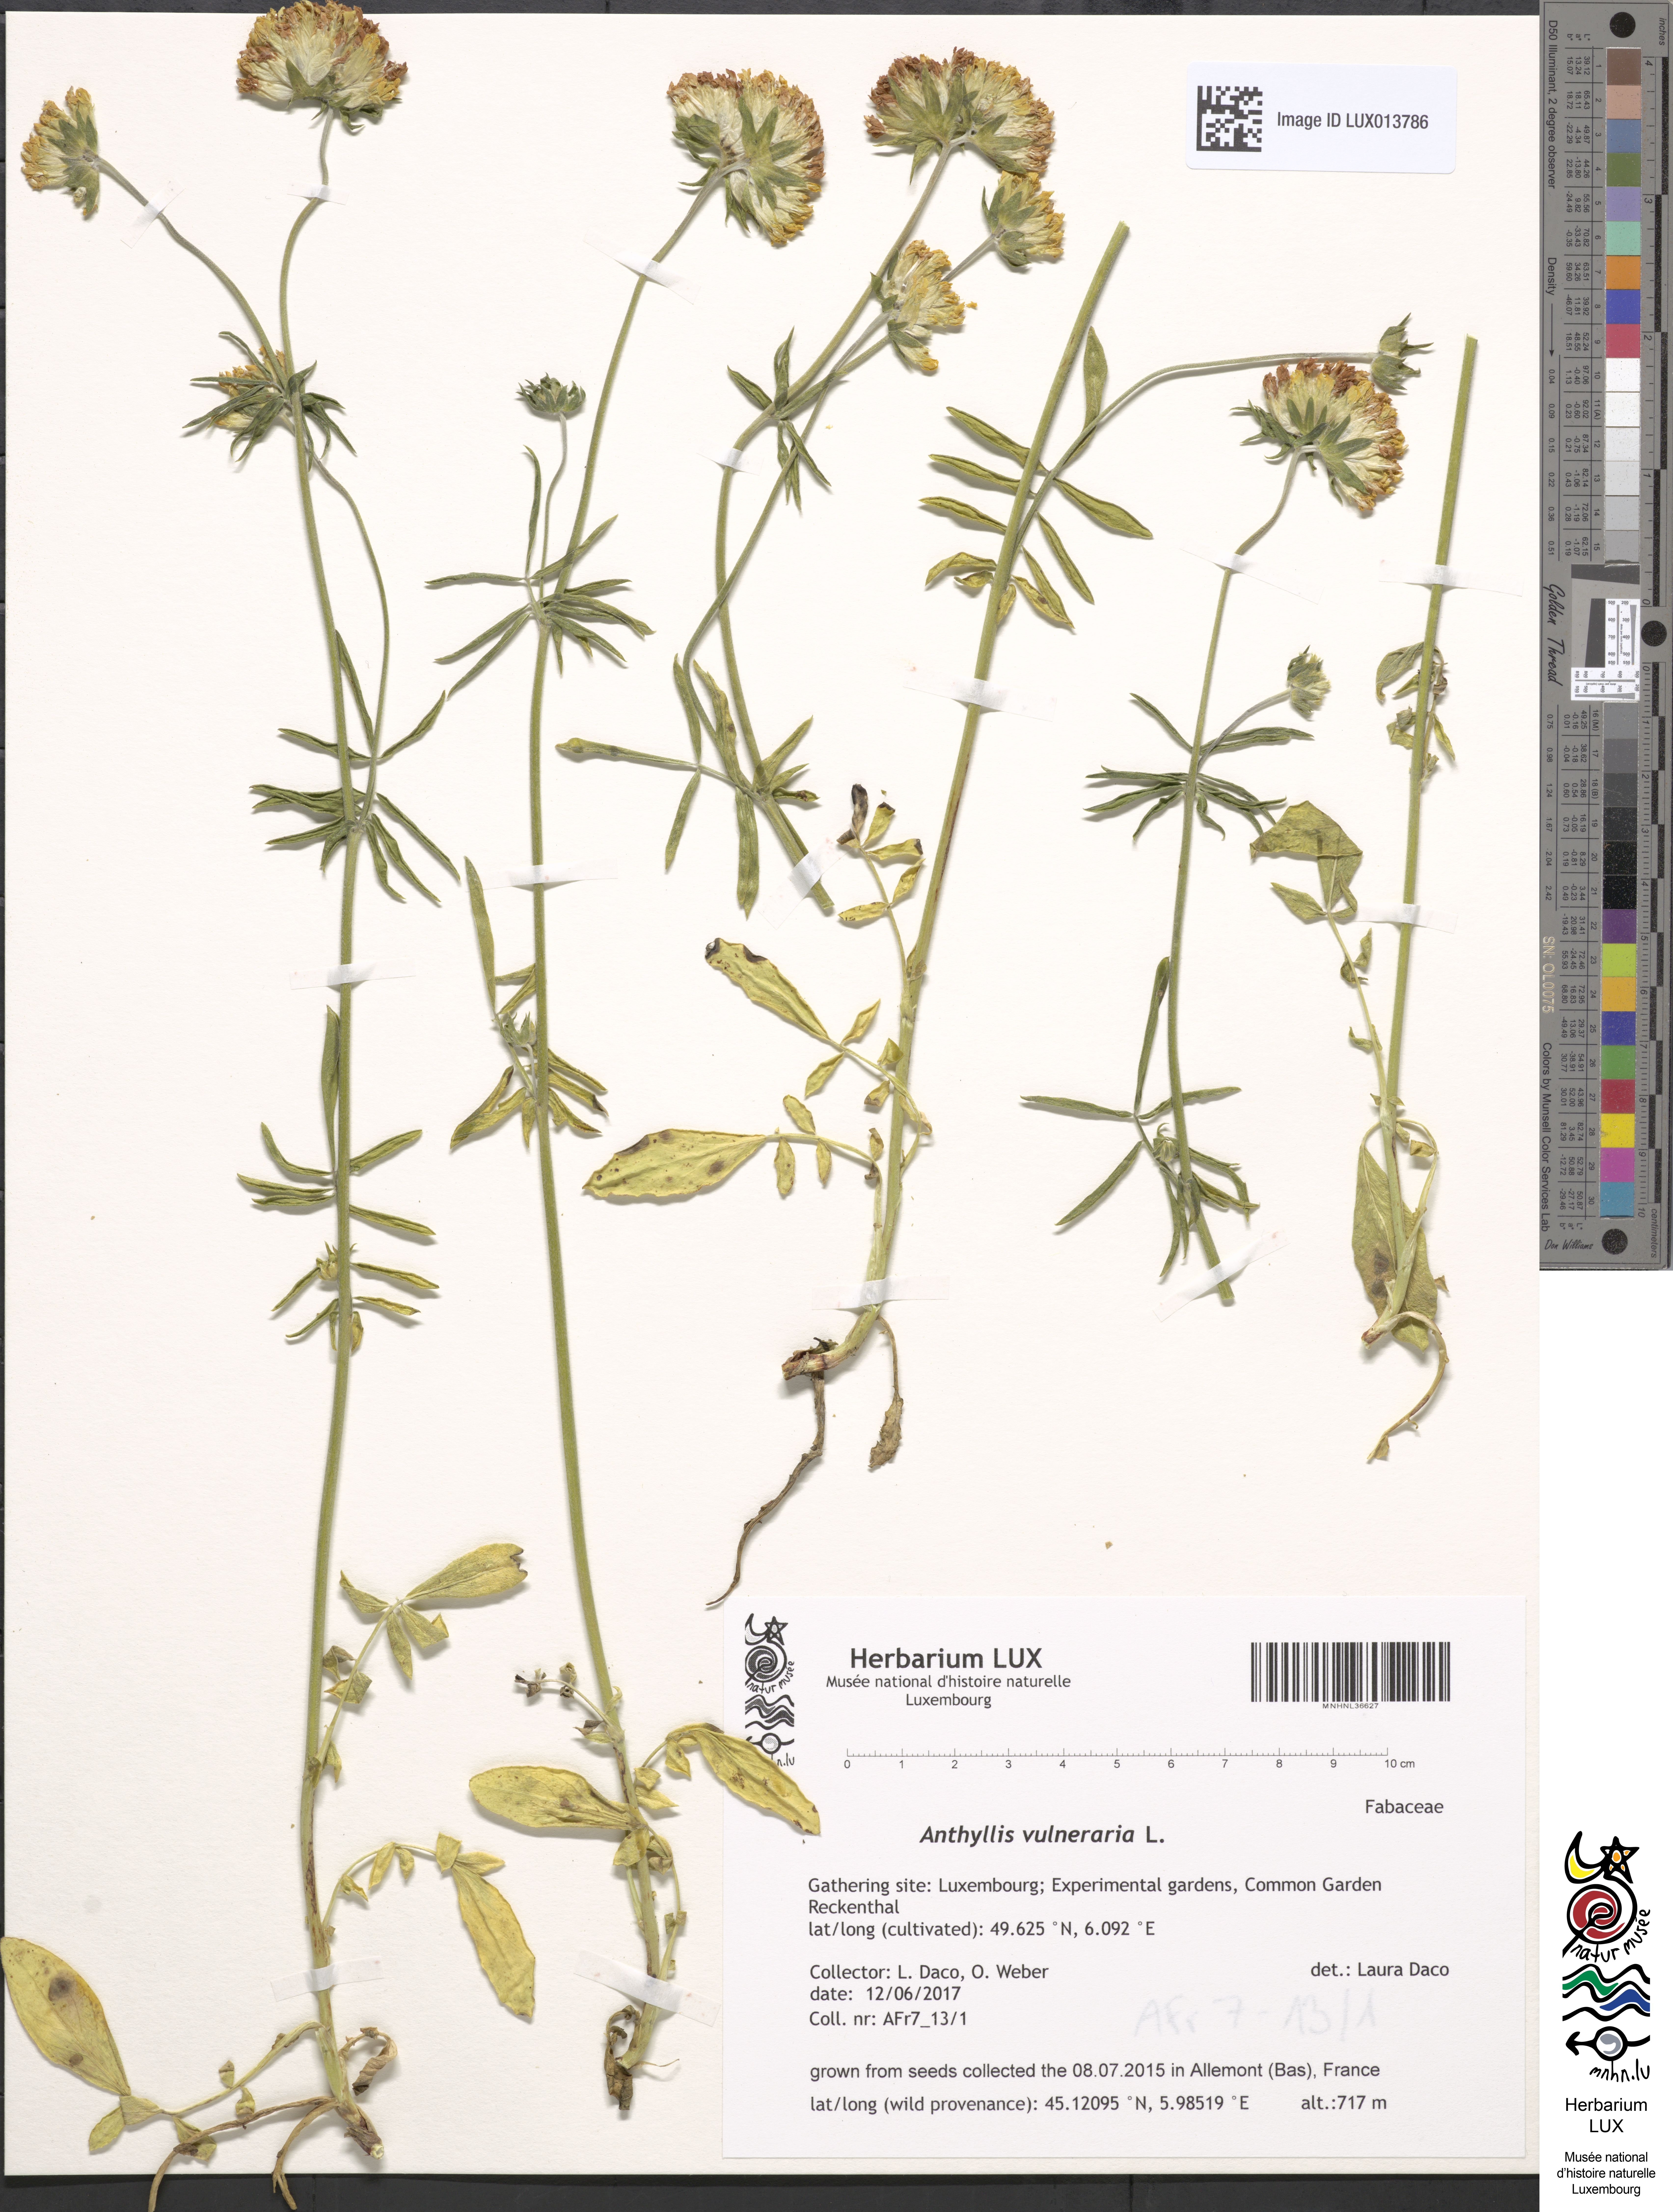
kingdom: Plantae
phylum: Tracheophyta
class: Magnoliopsida
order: Fabales
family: Fabaceae
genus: Anthyllis
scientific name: Anthyllis vulneraria
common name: Kidney vetch
